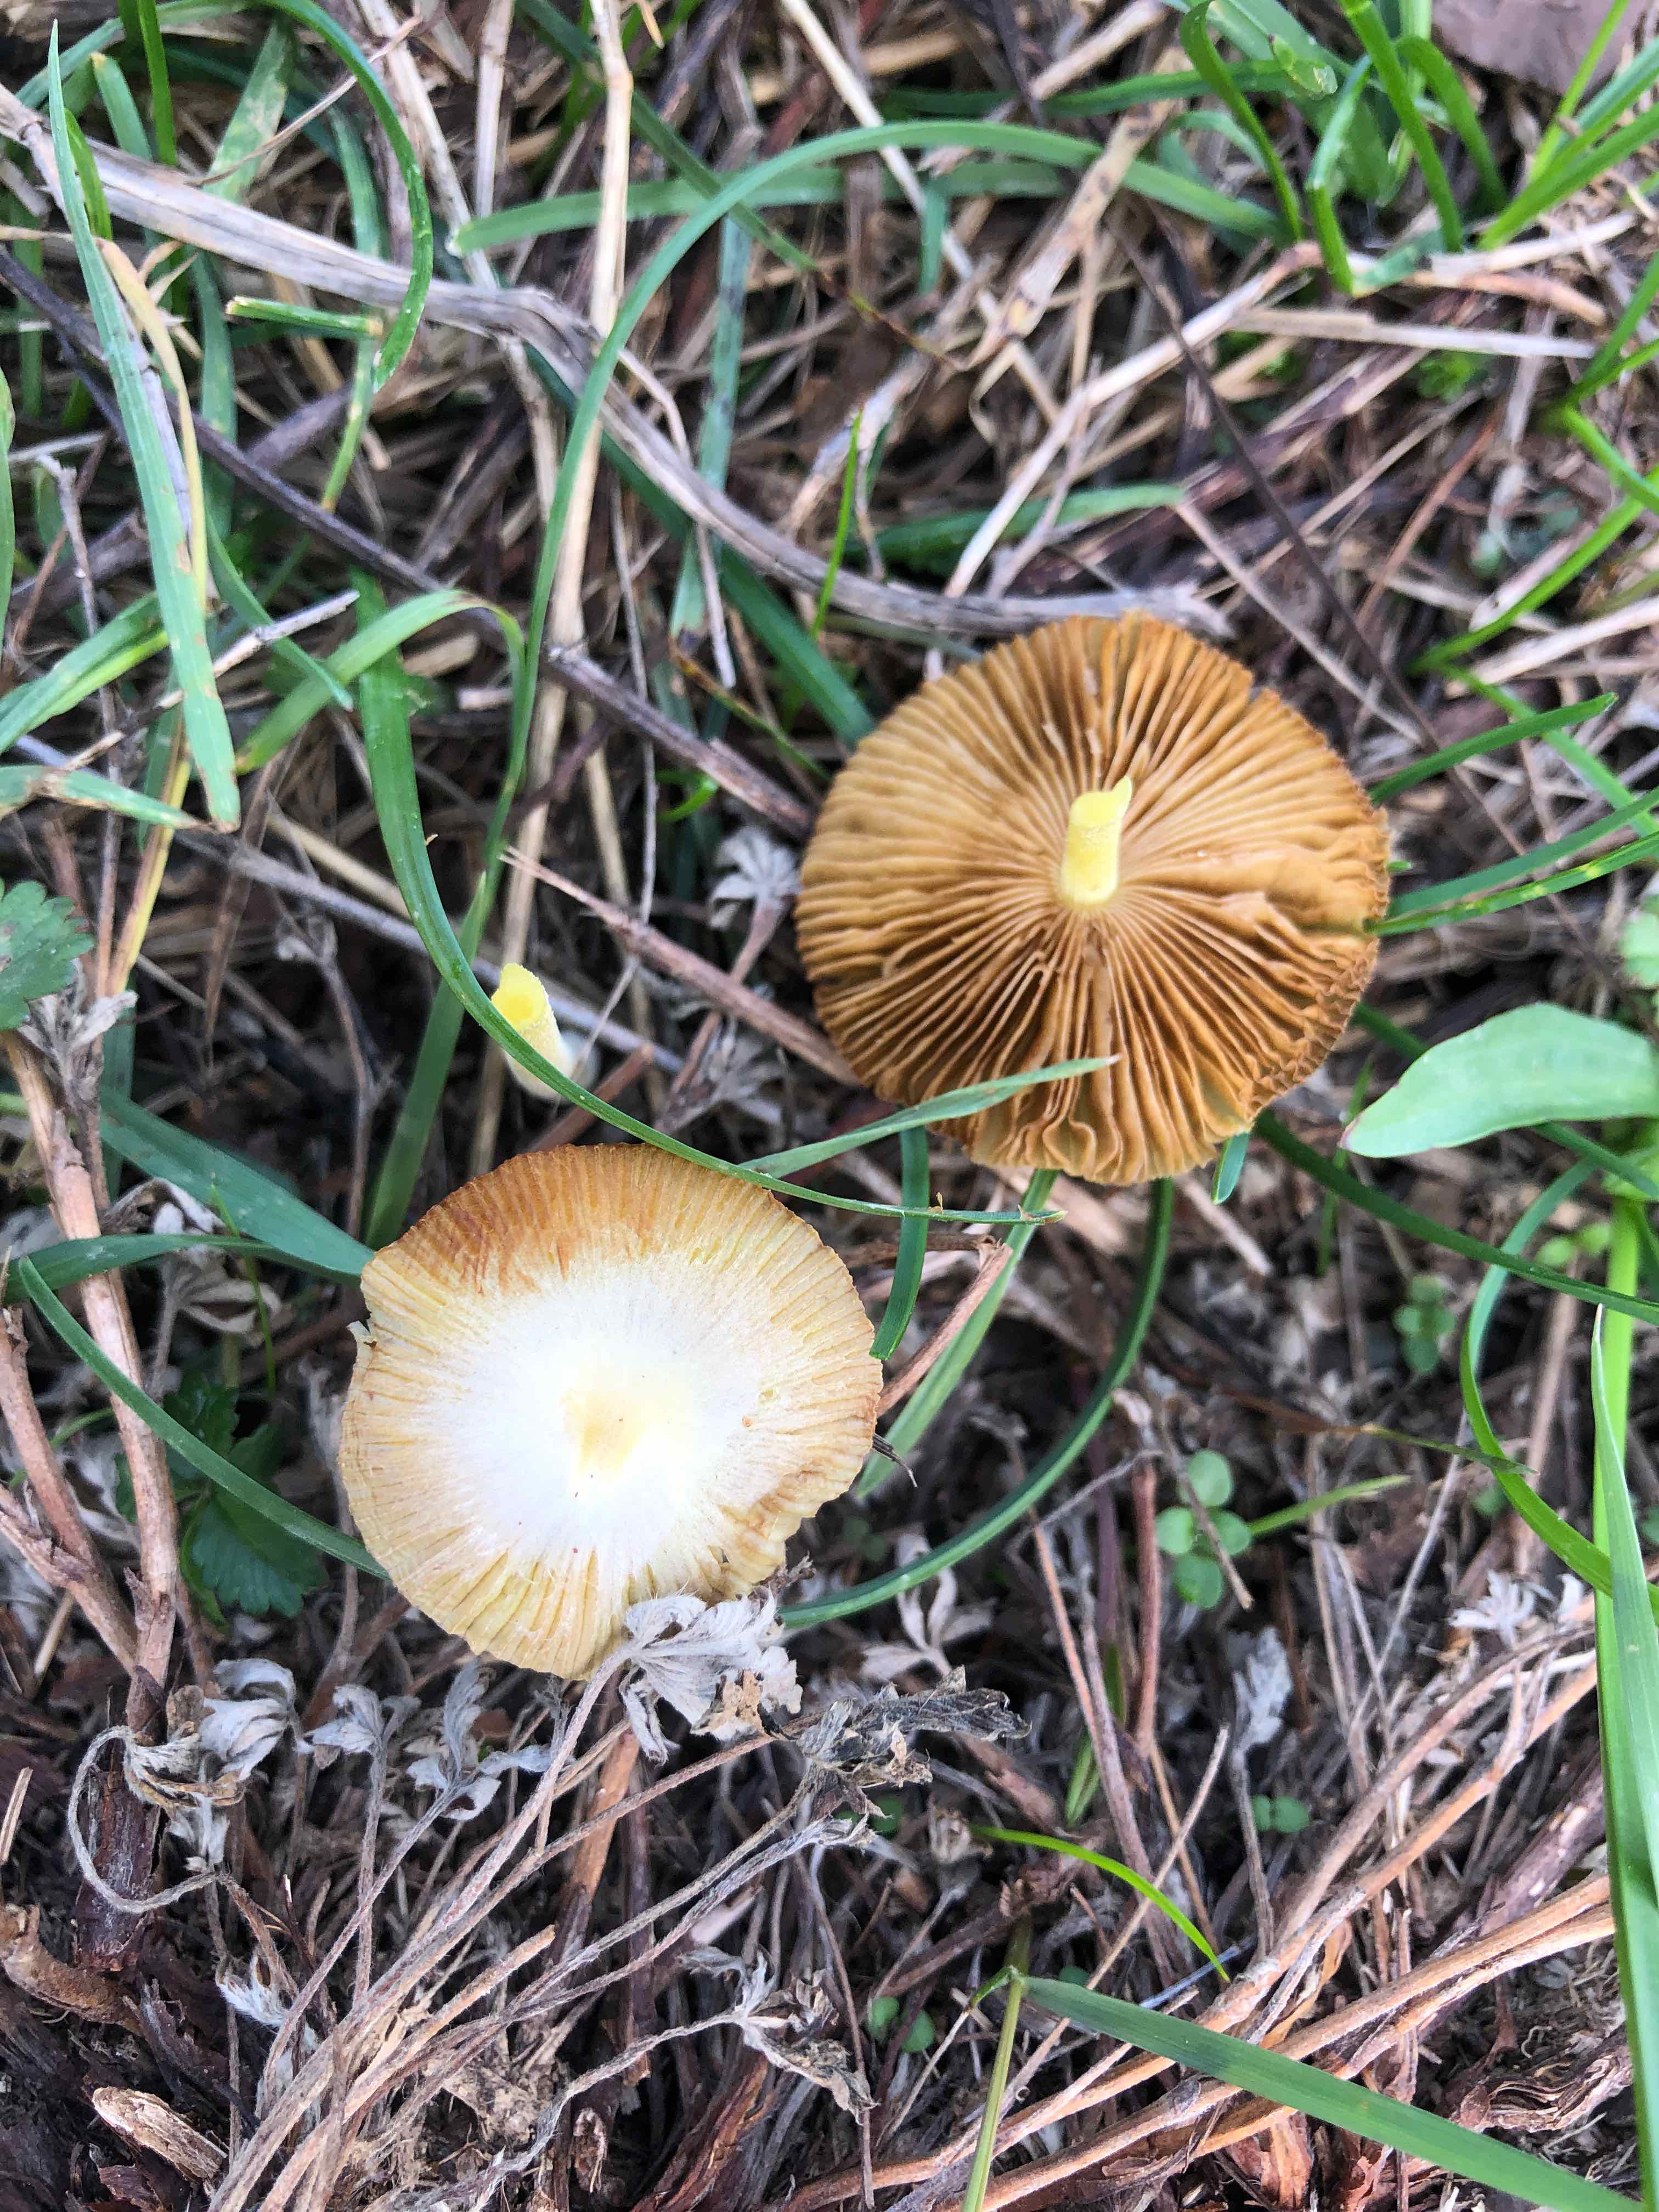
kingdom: Fungi
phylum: Basidiomycota
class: Agaricomycetes
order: Agaricales
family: Bolbitiaceae
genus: Bolbitius
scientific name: Bolbitius titubans
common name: almindelig gulhat
